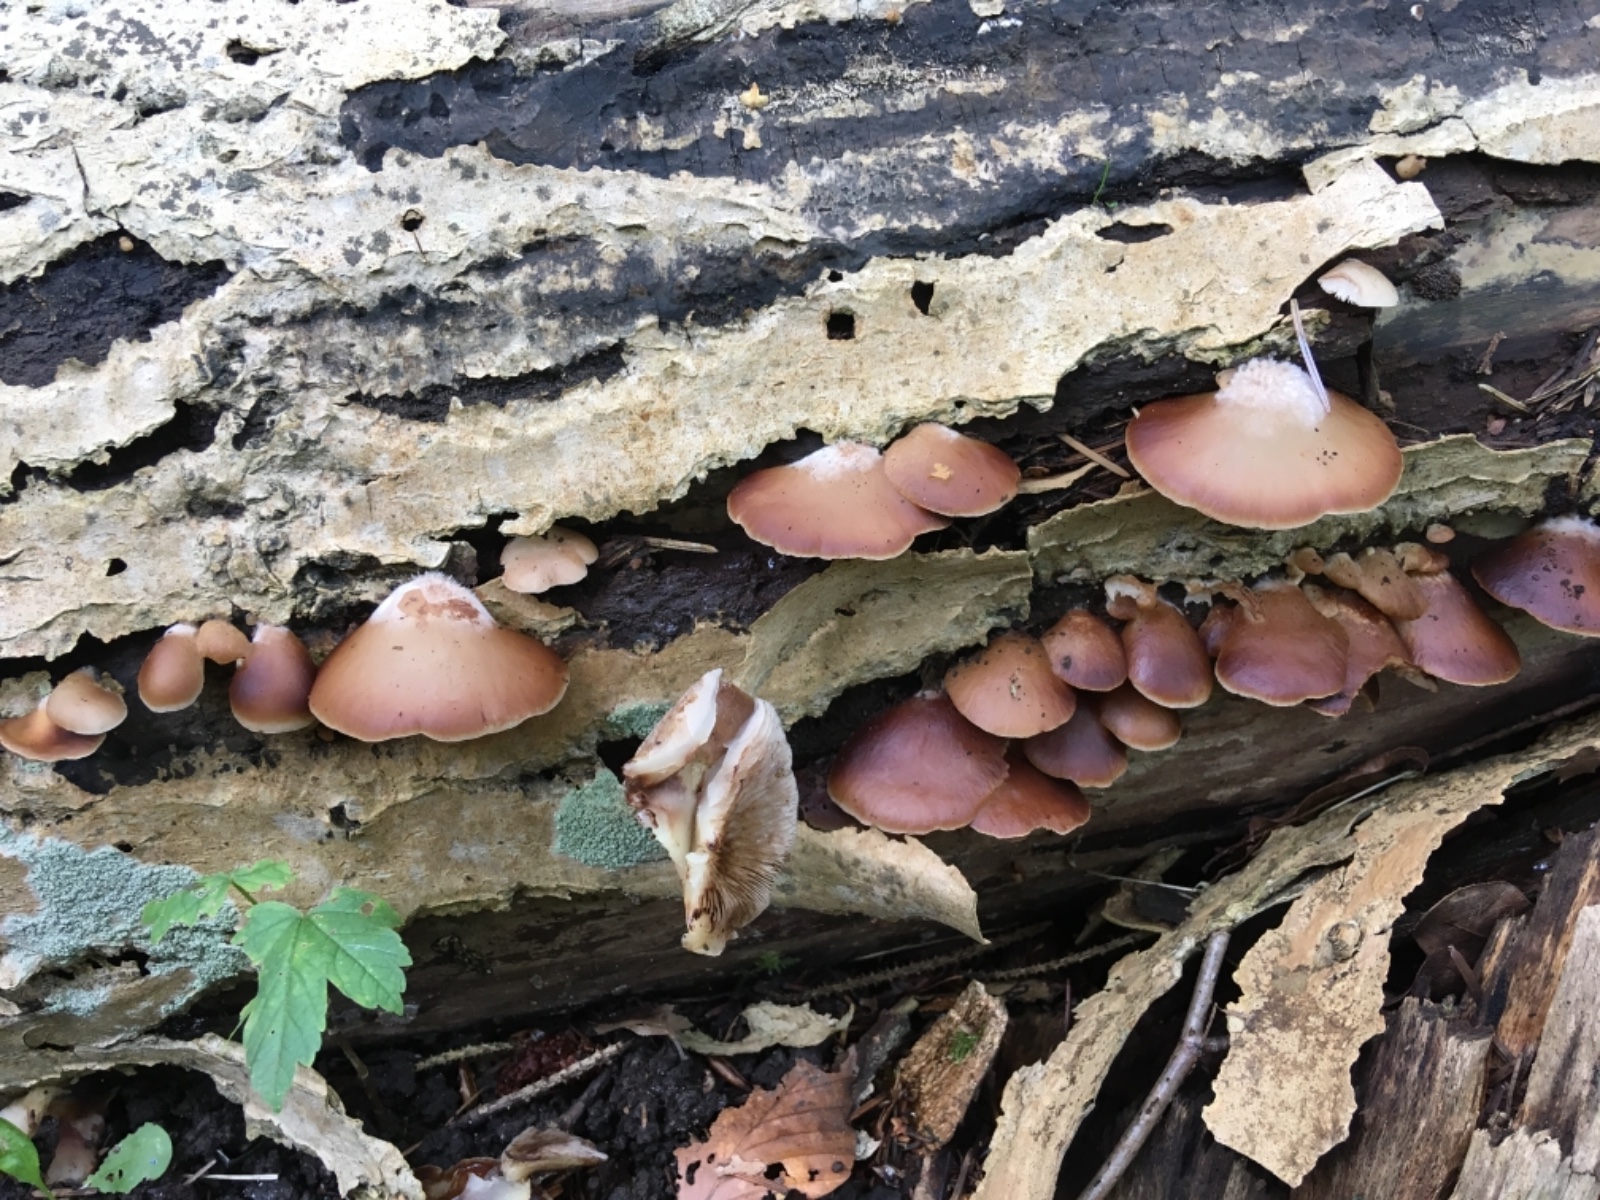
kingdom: Fungi
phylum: Basidiomycota
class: Agaricomycetes
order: Agaricales
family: Crepidotaceae
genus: Crepidotus
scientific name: Crepidotus mollis
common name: blød muslingesvamp
